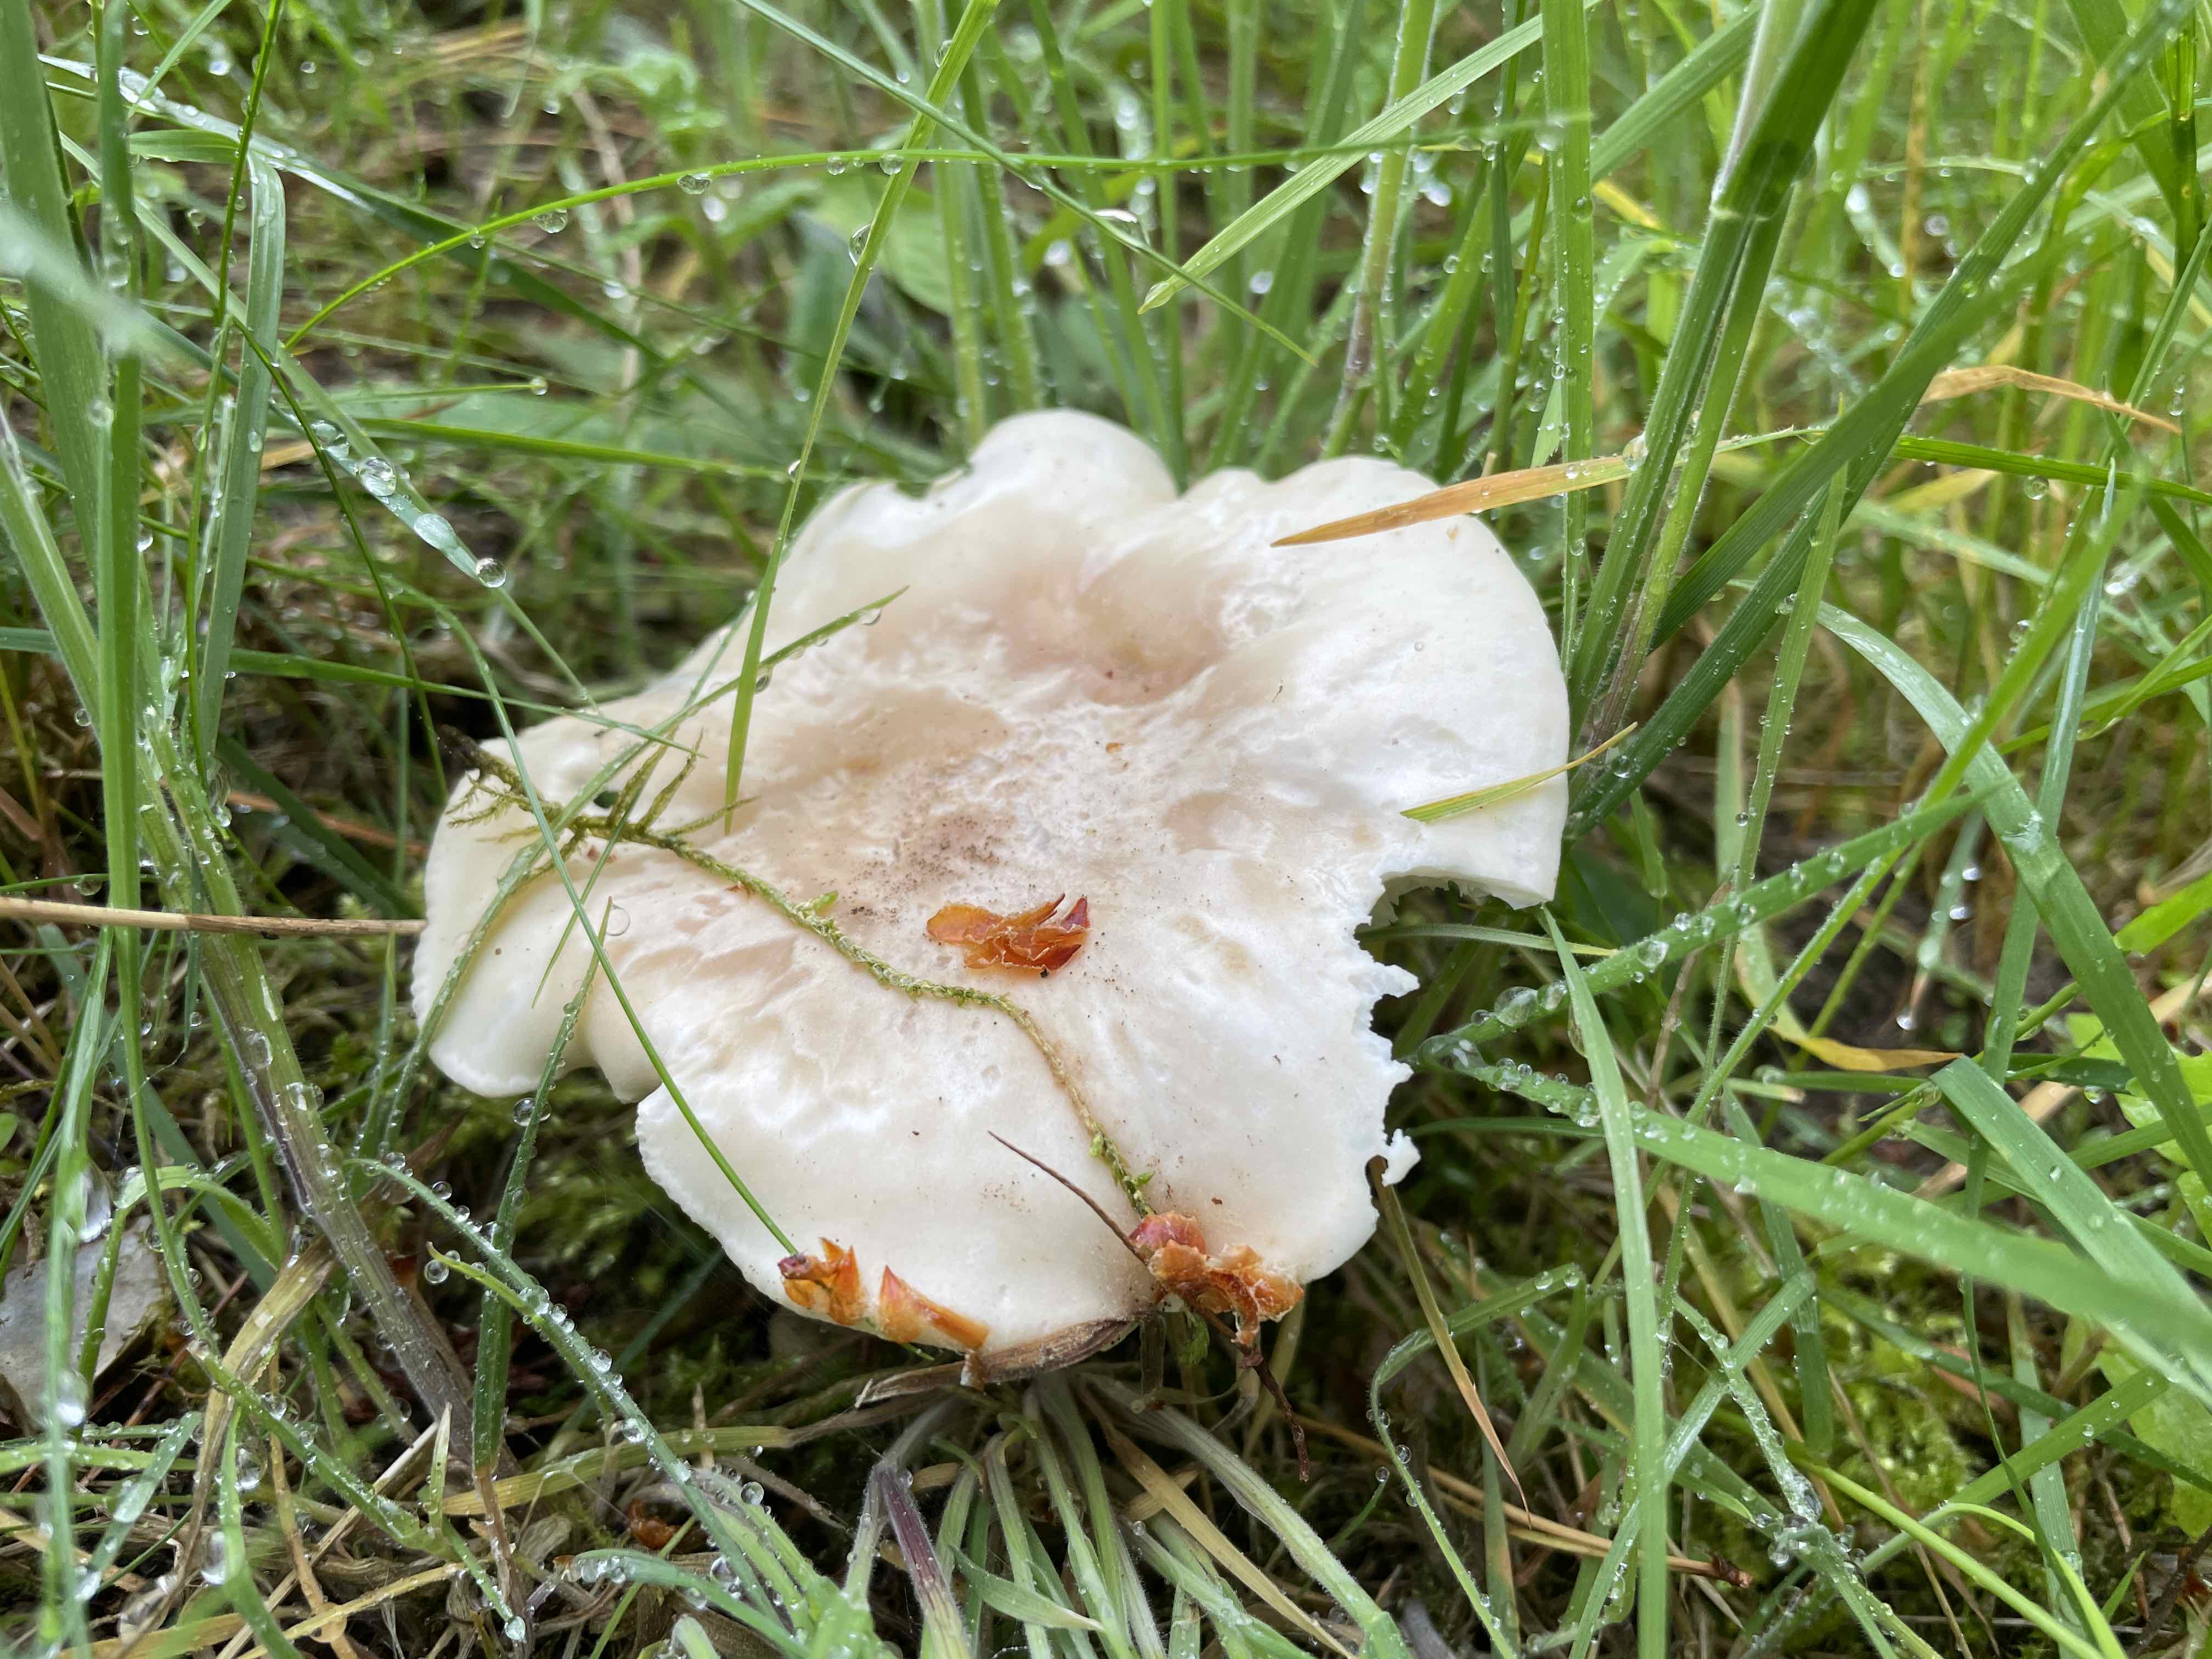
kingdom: Fungi
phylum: Basidiomycota
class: Agaricomycetes
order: Agaricales
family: Lyophyllaceae
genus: Calocybe
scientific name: Calocybe gambosa
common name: vårmusseron
